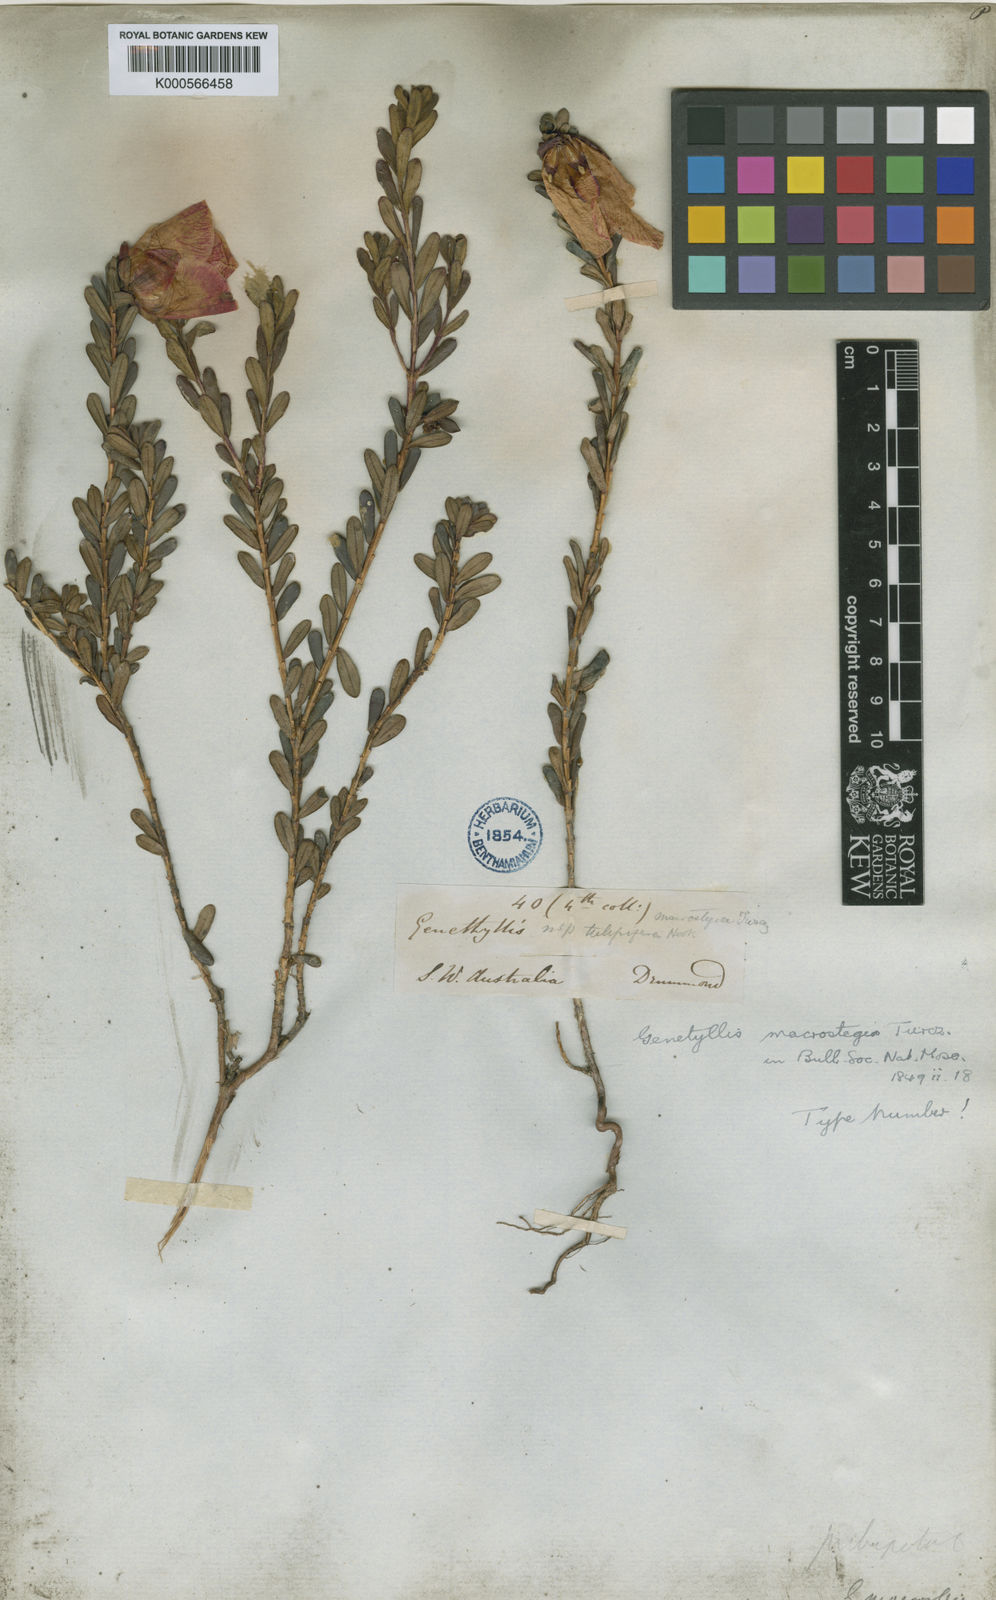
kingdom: Plantae
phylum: Tracheophyta
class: Magnoliopsida
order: Myrtales
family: Myrtaceae
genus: Darwinia
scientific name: Darwinia macrostegia
